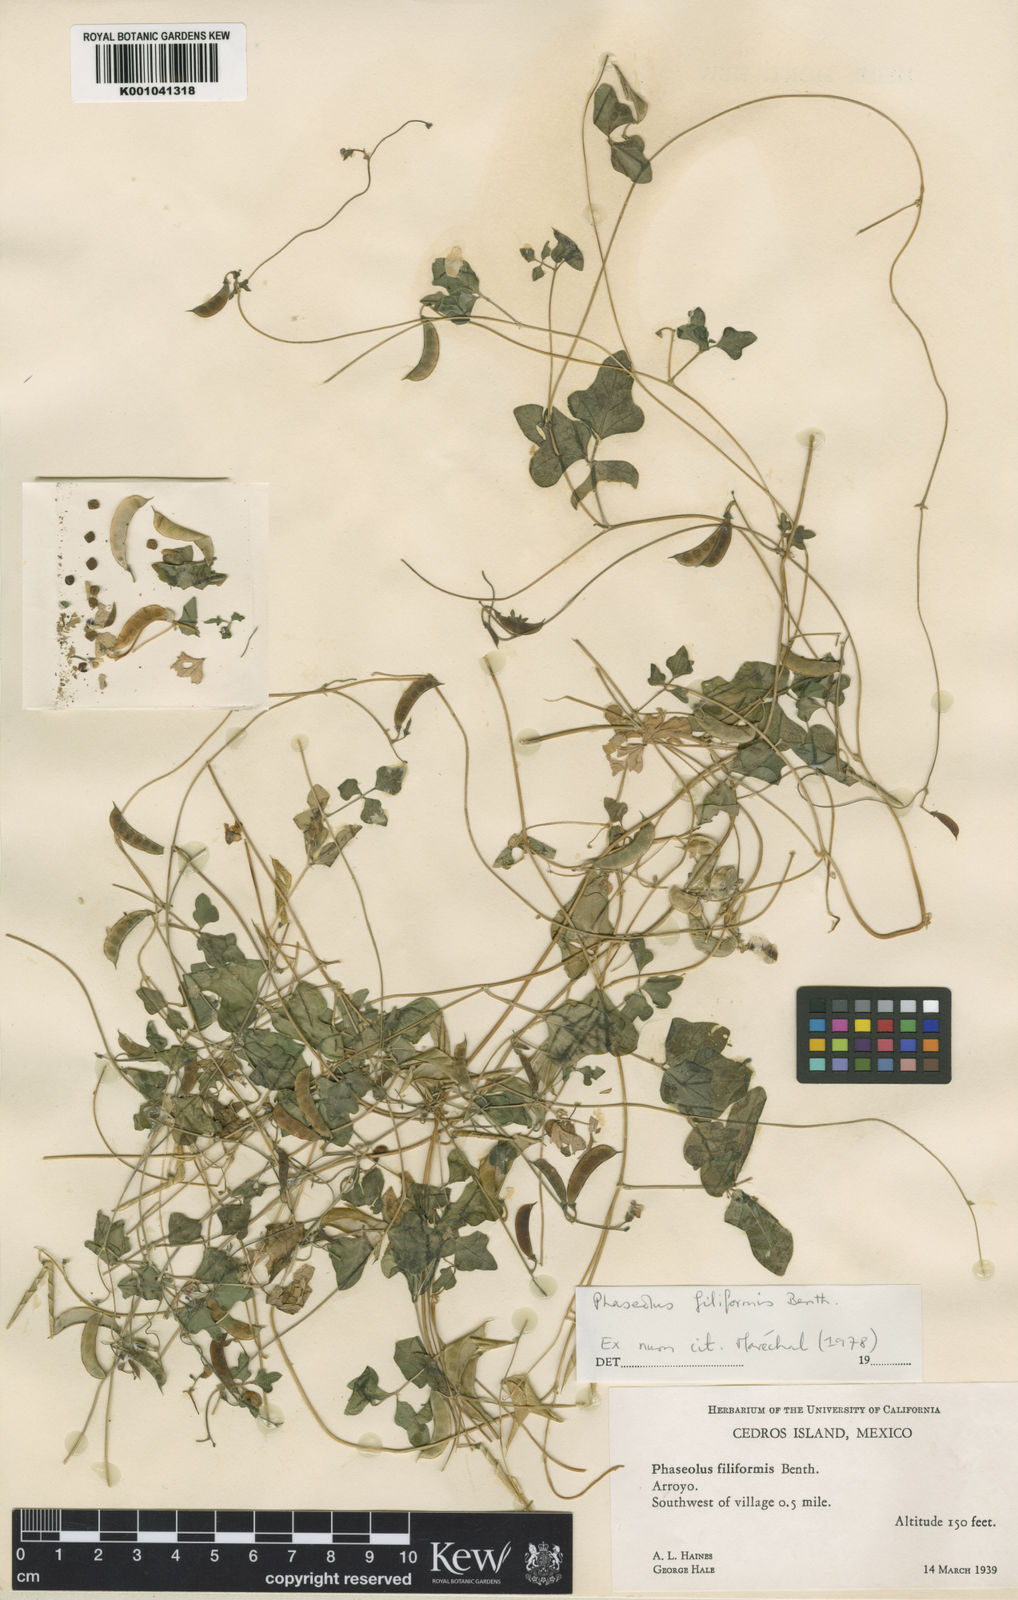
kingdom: Plantae
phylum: Tracheophyta
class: Magnoliopsida
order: Fabales
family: Fabaceae
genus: Phaseolus
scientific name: Phaseolus filiformis
